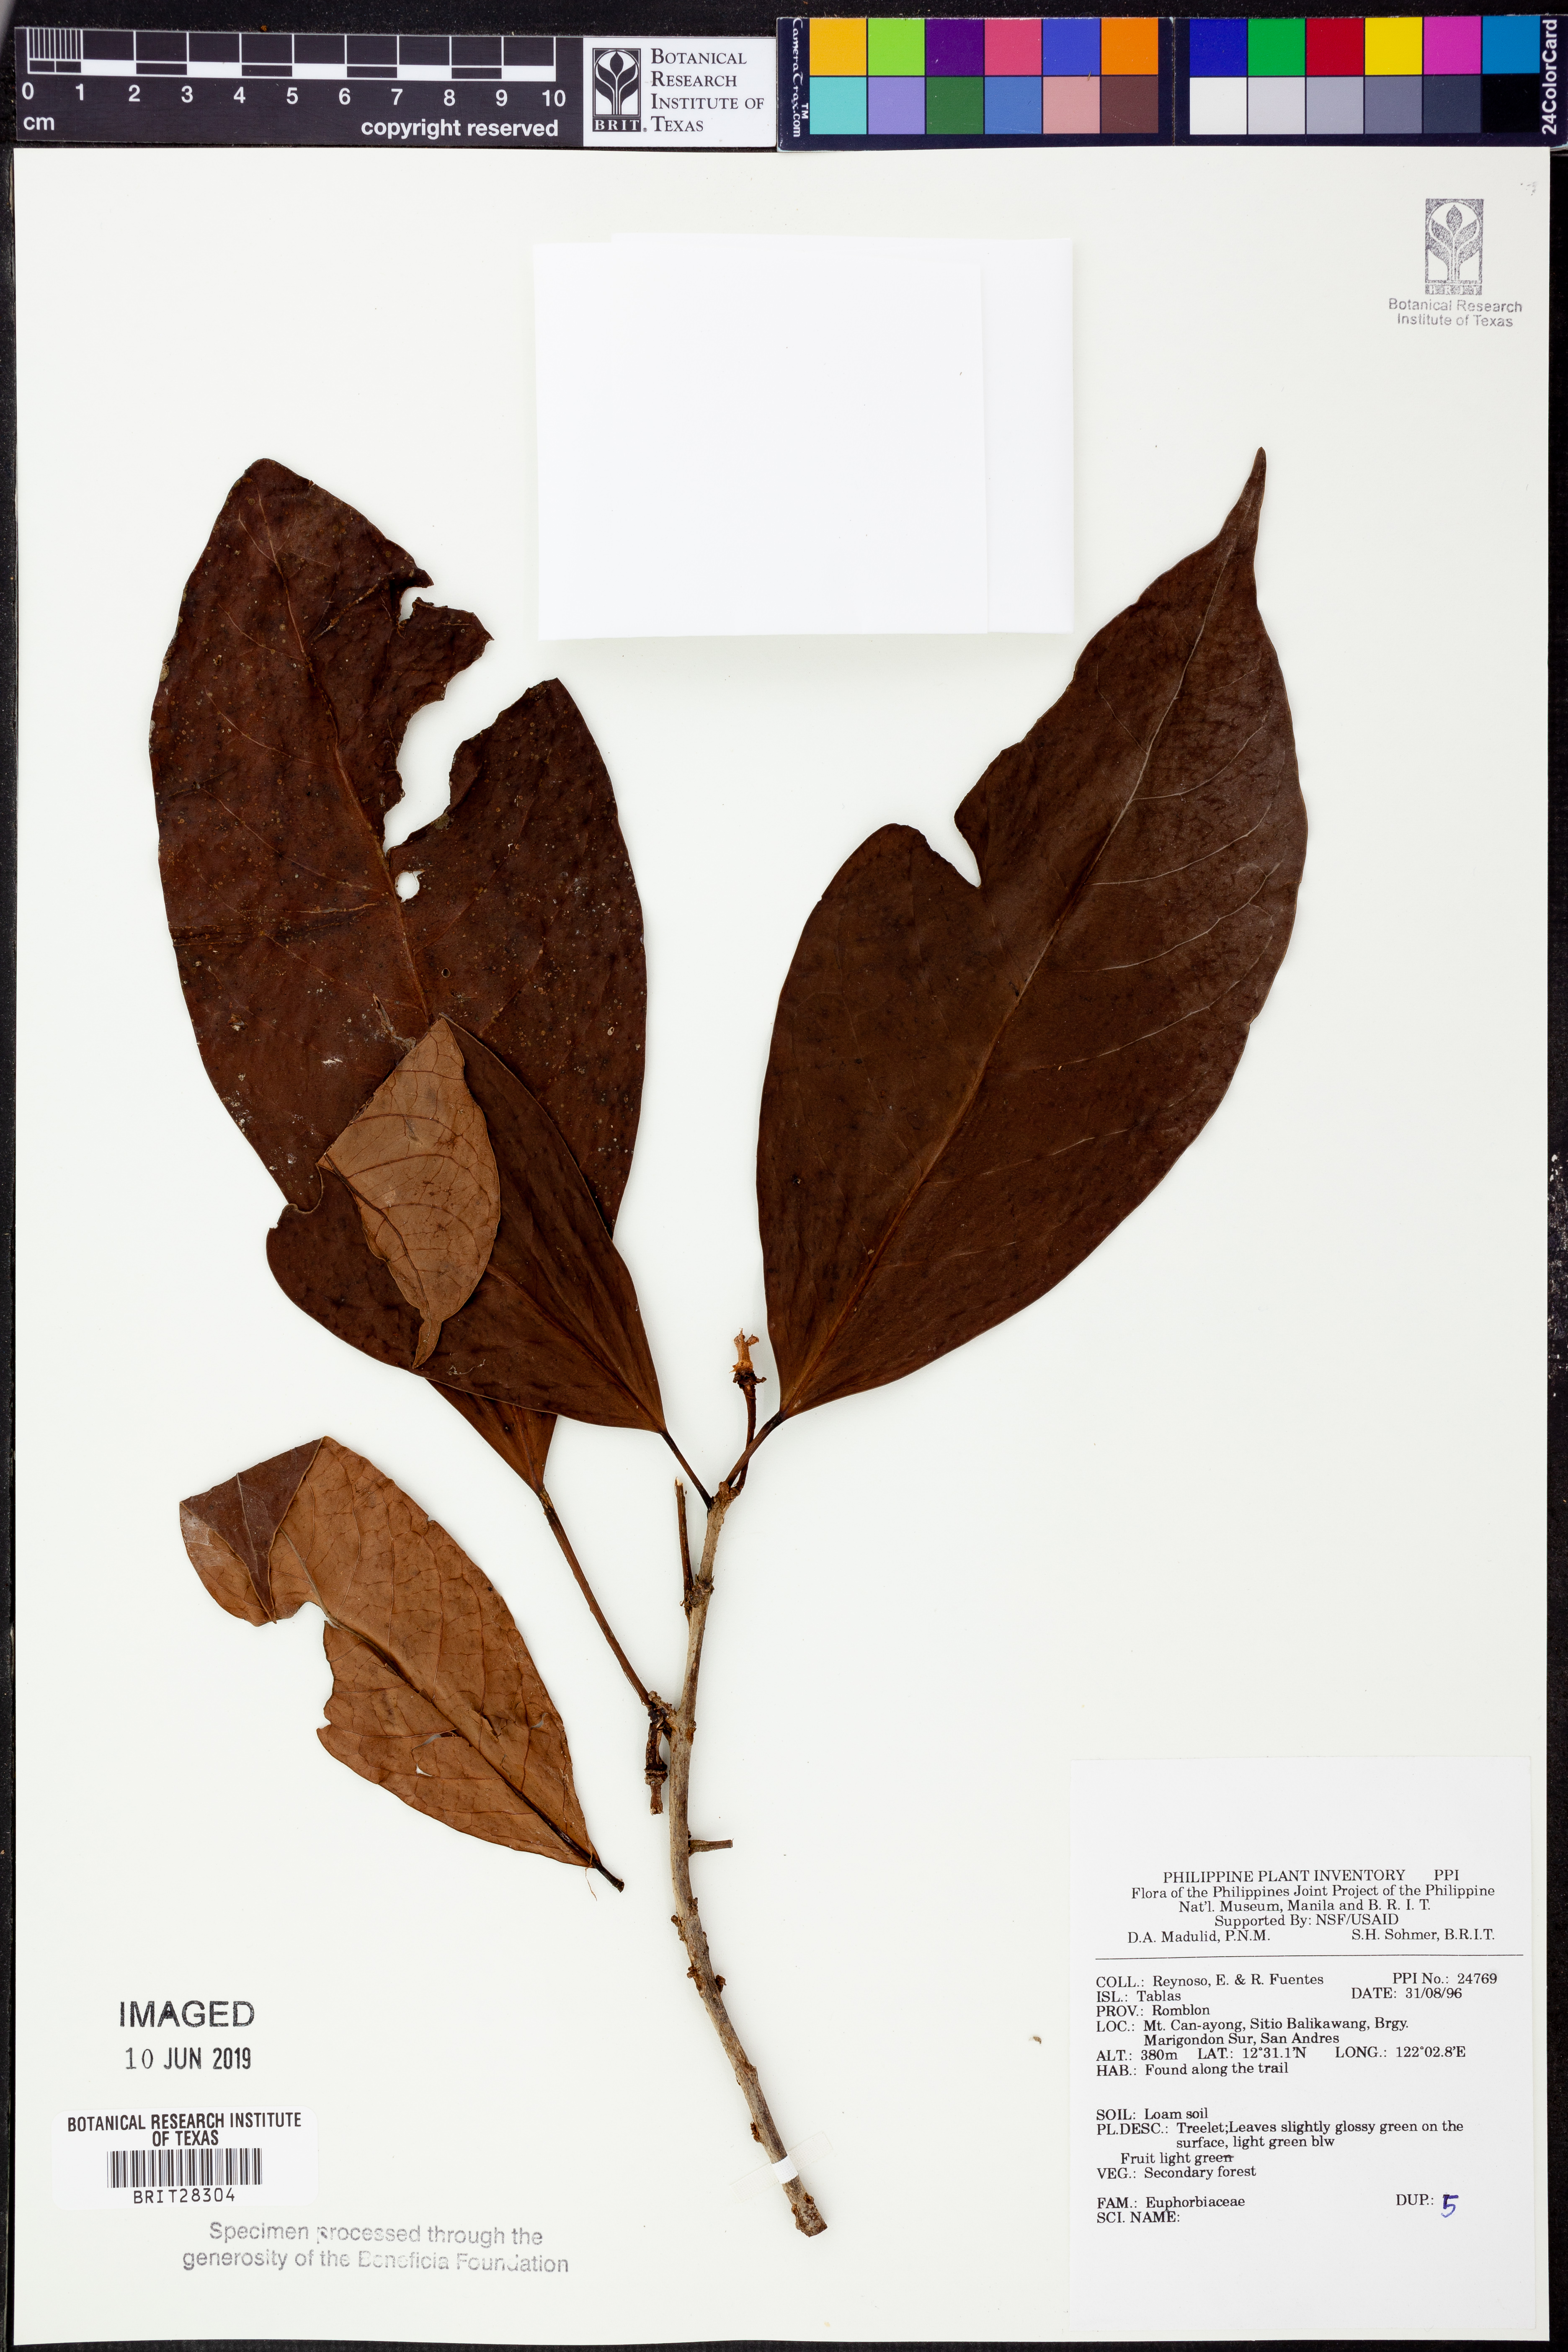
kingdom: Plantae
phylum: Tracheophyta
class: Magnoliopsida
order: Malpighiales
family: Euphorbiaceae
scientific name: Euphorbiaceae
